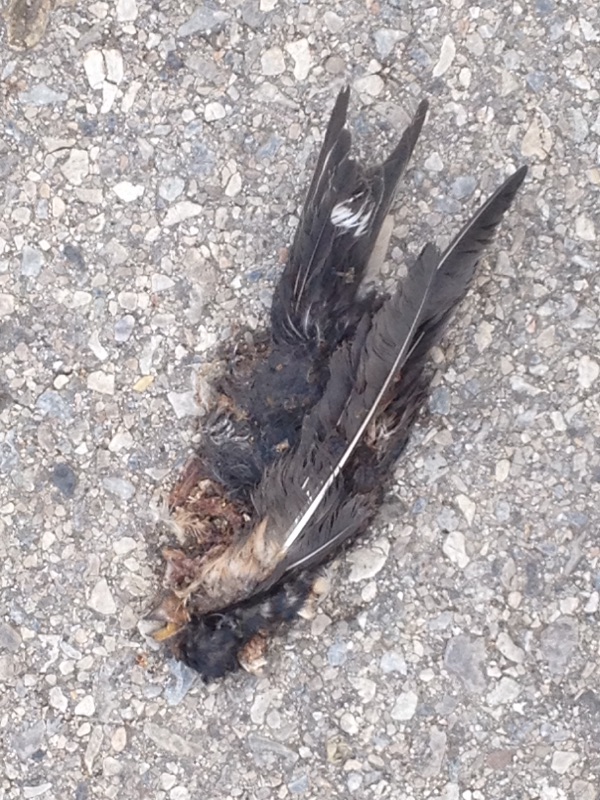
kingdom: Animalia
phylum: Chordata
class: Aves
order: Passeriformes
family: Hirundinidae
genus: Hirundo
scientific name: Hirundo rustica
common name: Barn swallow
